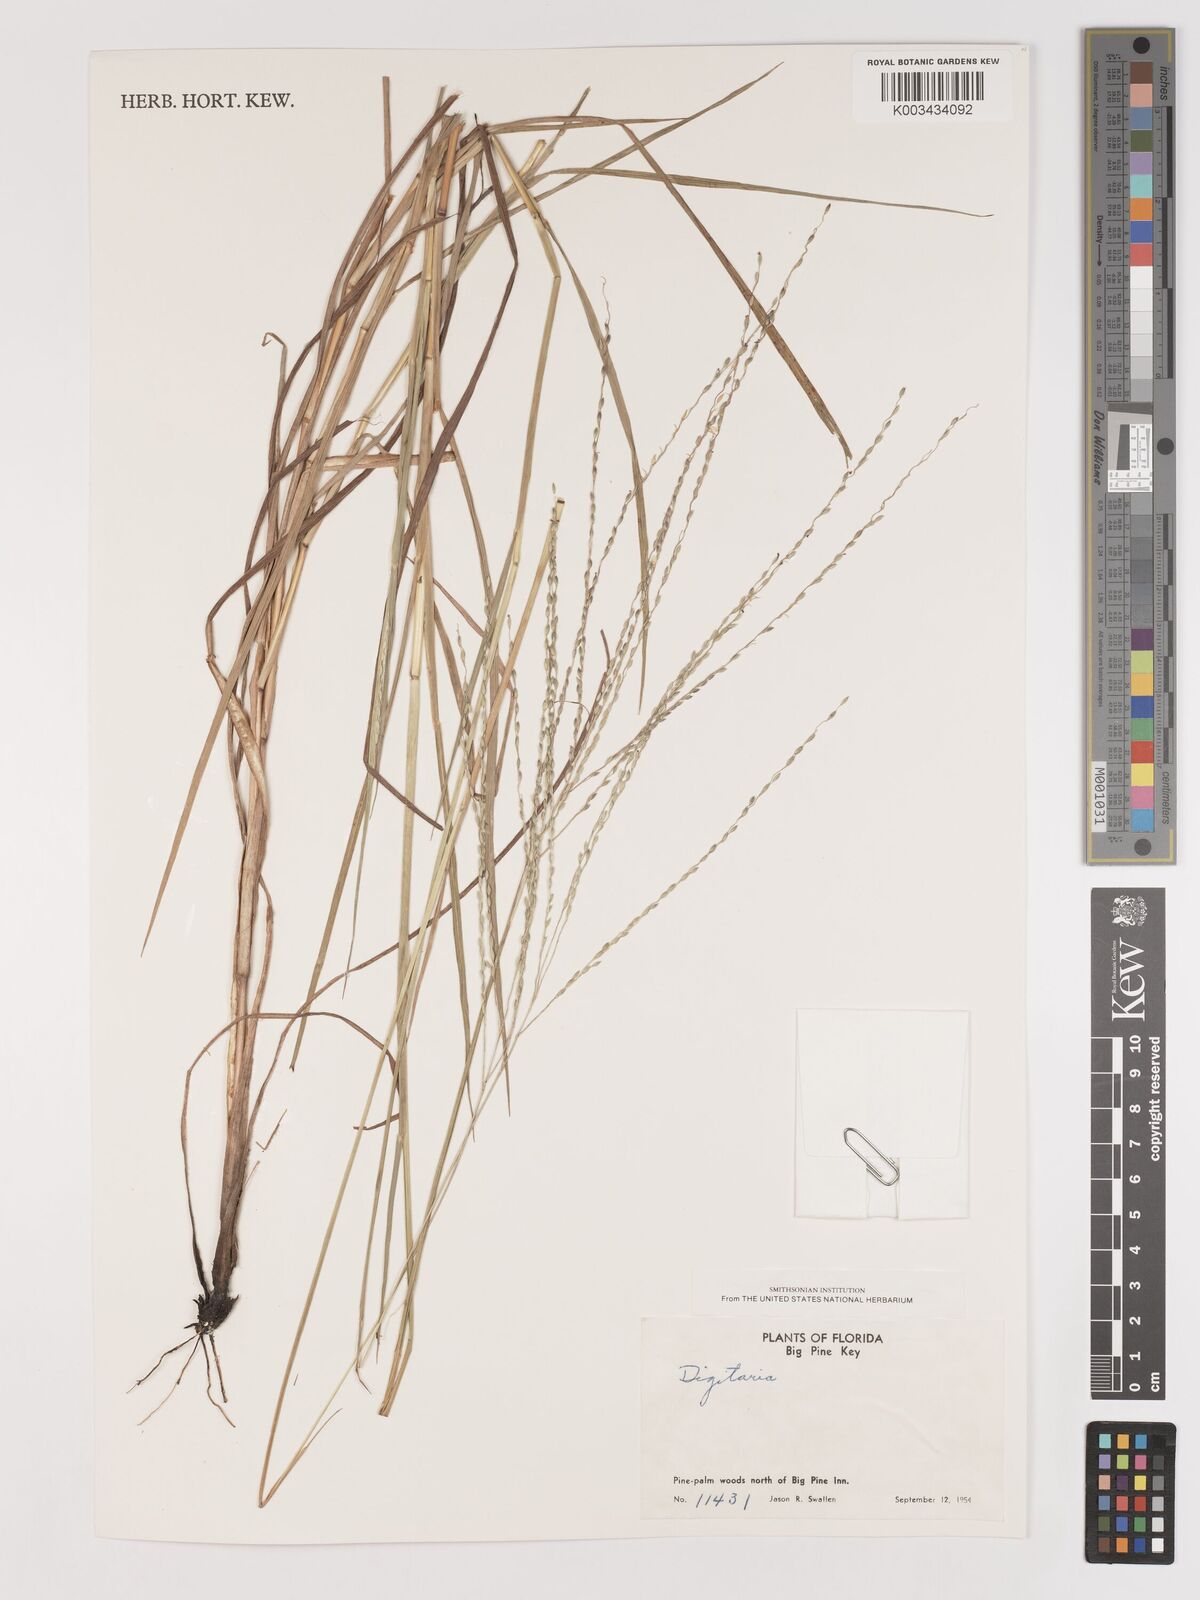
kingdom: Plantae
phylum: Tracheophyta
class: Liliopsida
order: Poales
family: Poaceae
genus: Digitaria
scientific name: Digitaria spec
